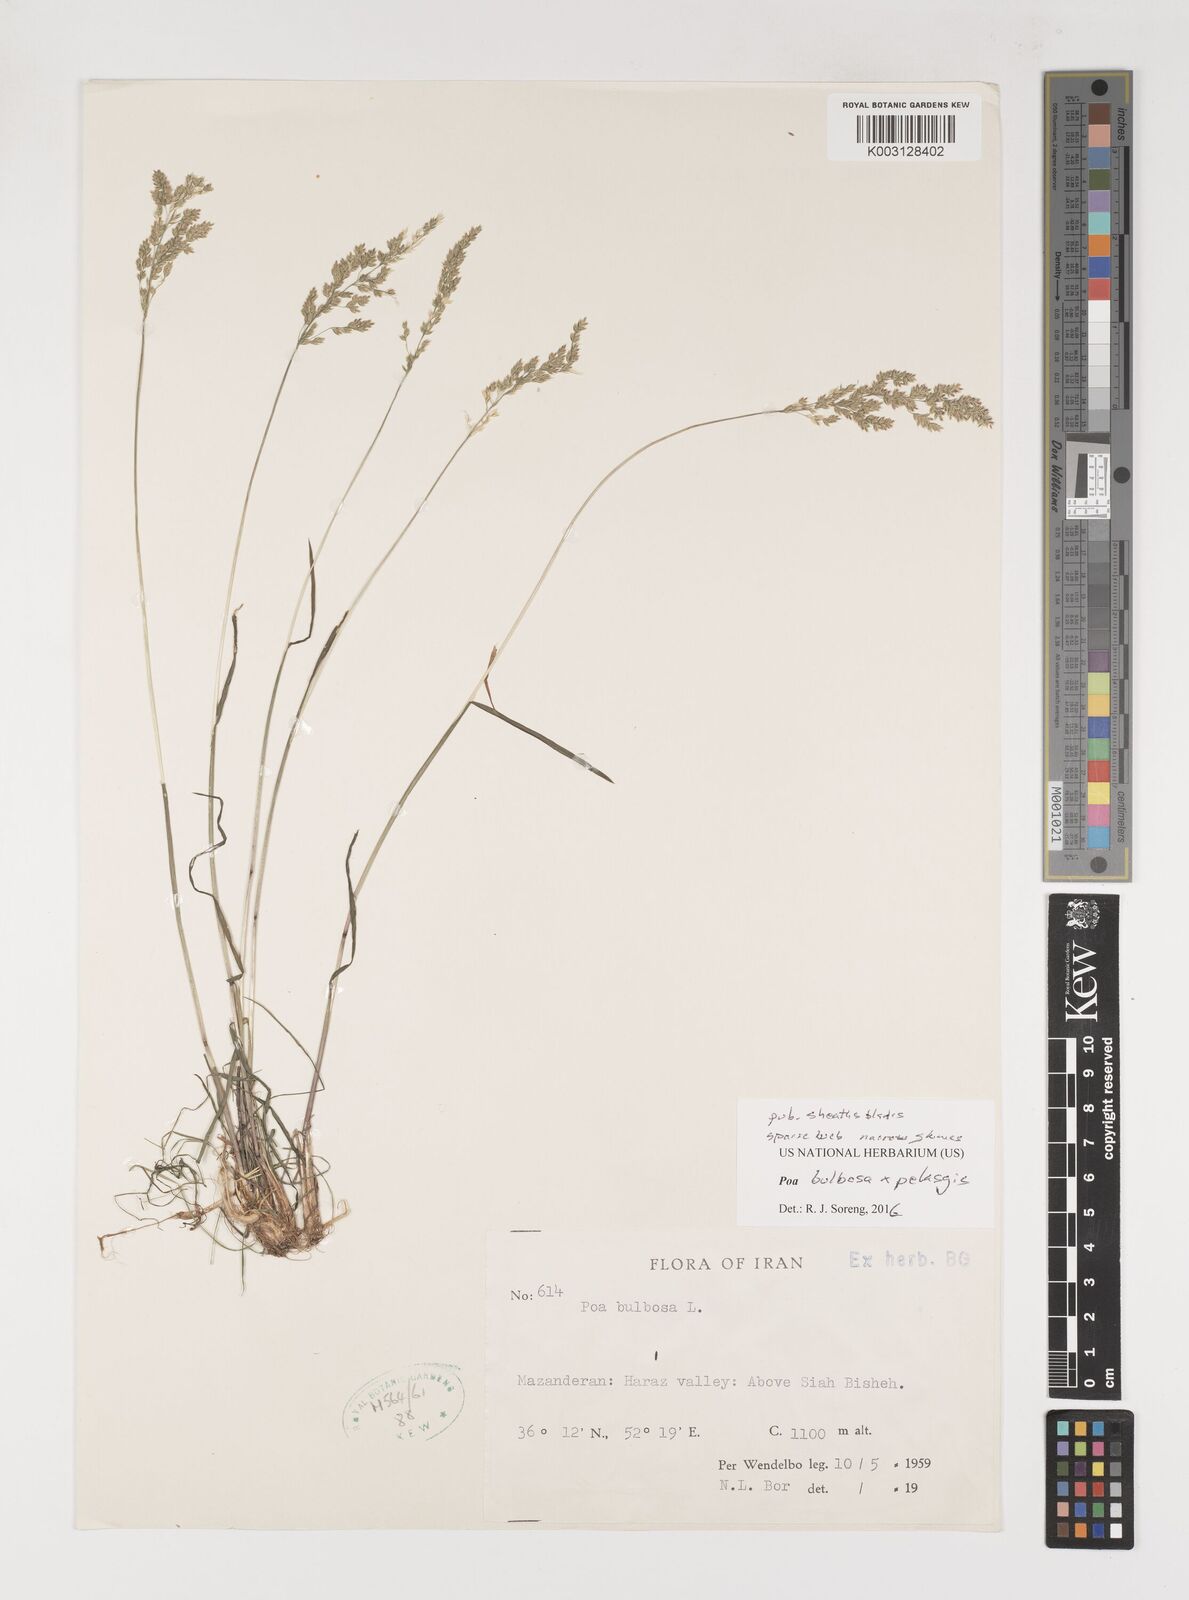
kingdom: Plantae
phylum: Tracheophyta
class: Liliopsida
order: Poales
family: Poaceae
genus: Poa
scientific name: Poa
